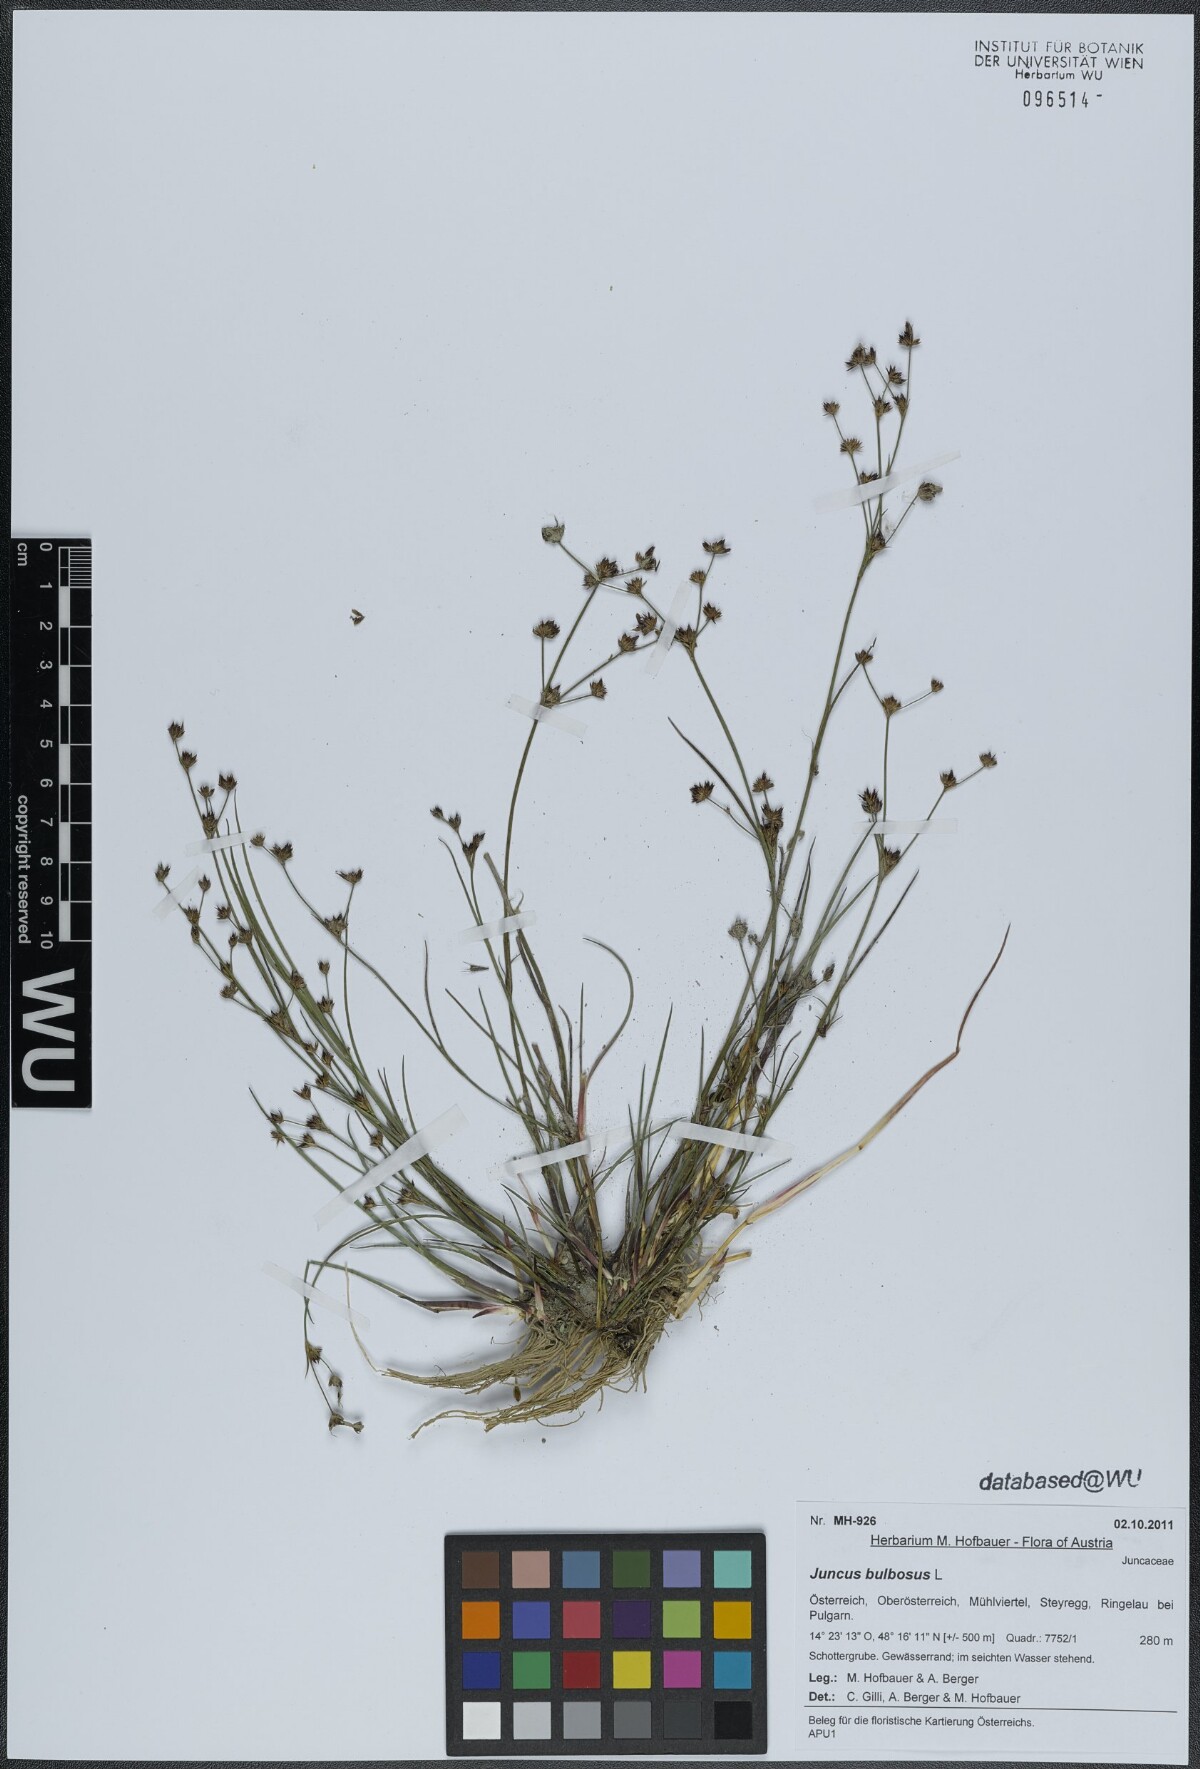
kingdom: Plantae
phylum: Tracheophyta
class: Liliopsida
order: Poales
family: Juncaceae
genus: Juncus
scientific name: Juncus bulbosus
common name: Bulbous rush
